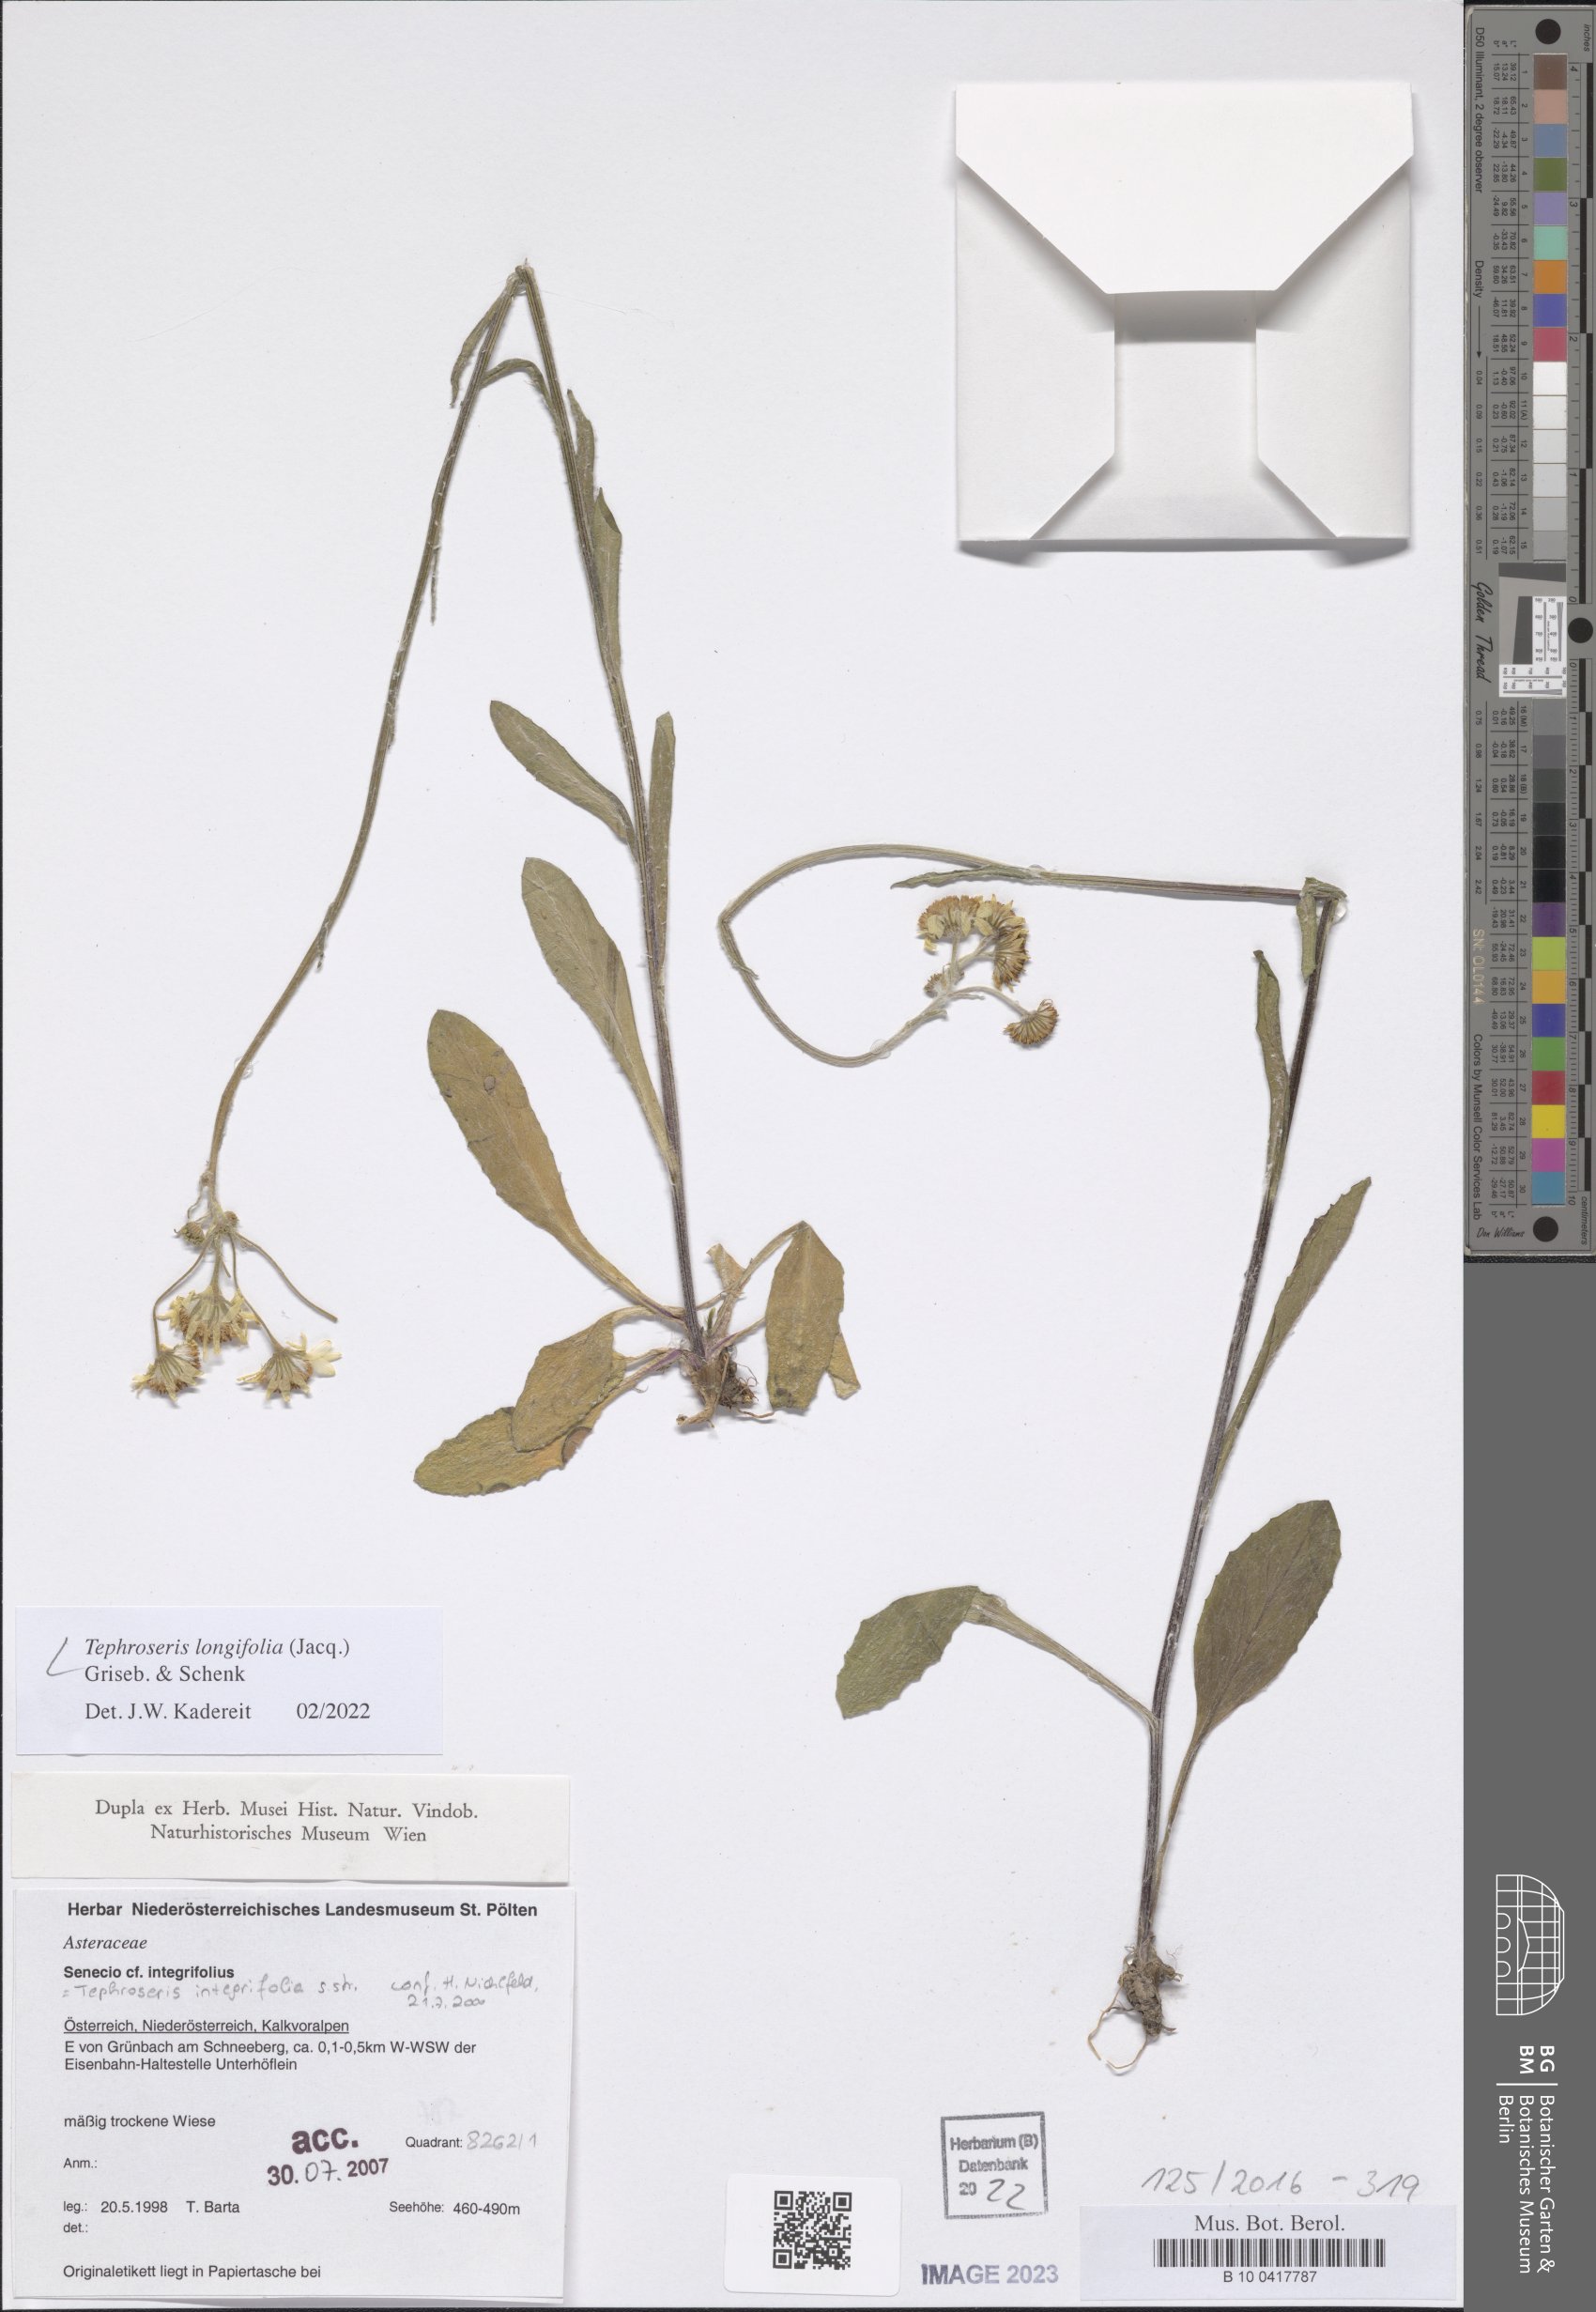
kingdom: Plantae
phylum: Tracheophyta
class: Magnoliopsida
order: Asterales
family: Asteraceae
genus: Tephroseris
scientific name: Tephroseris longifolia
